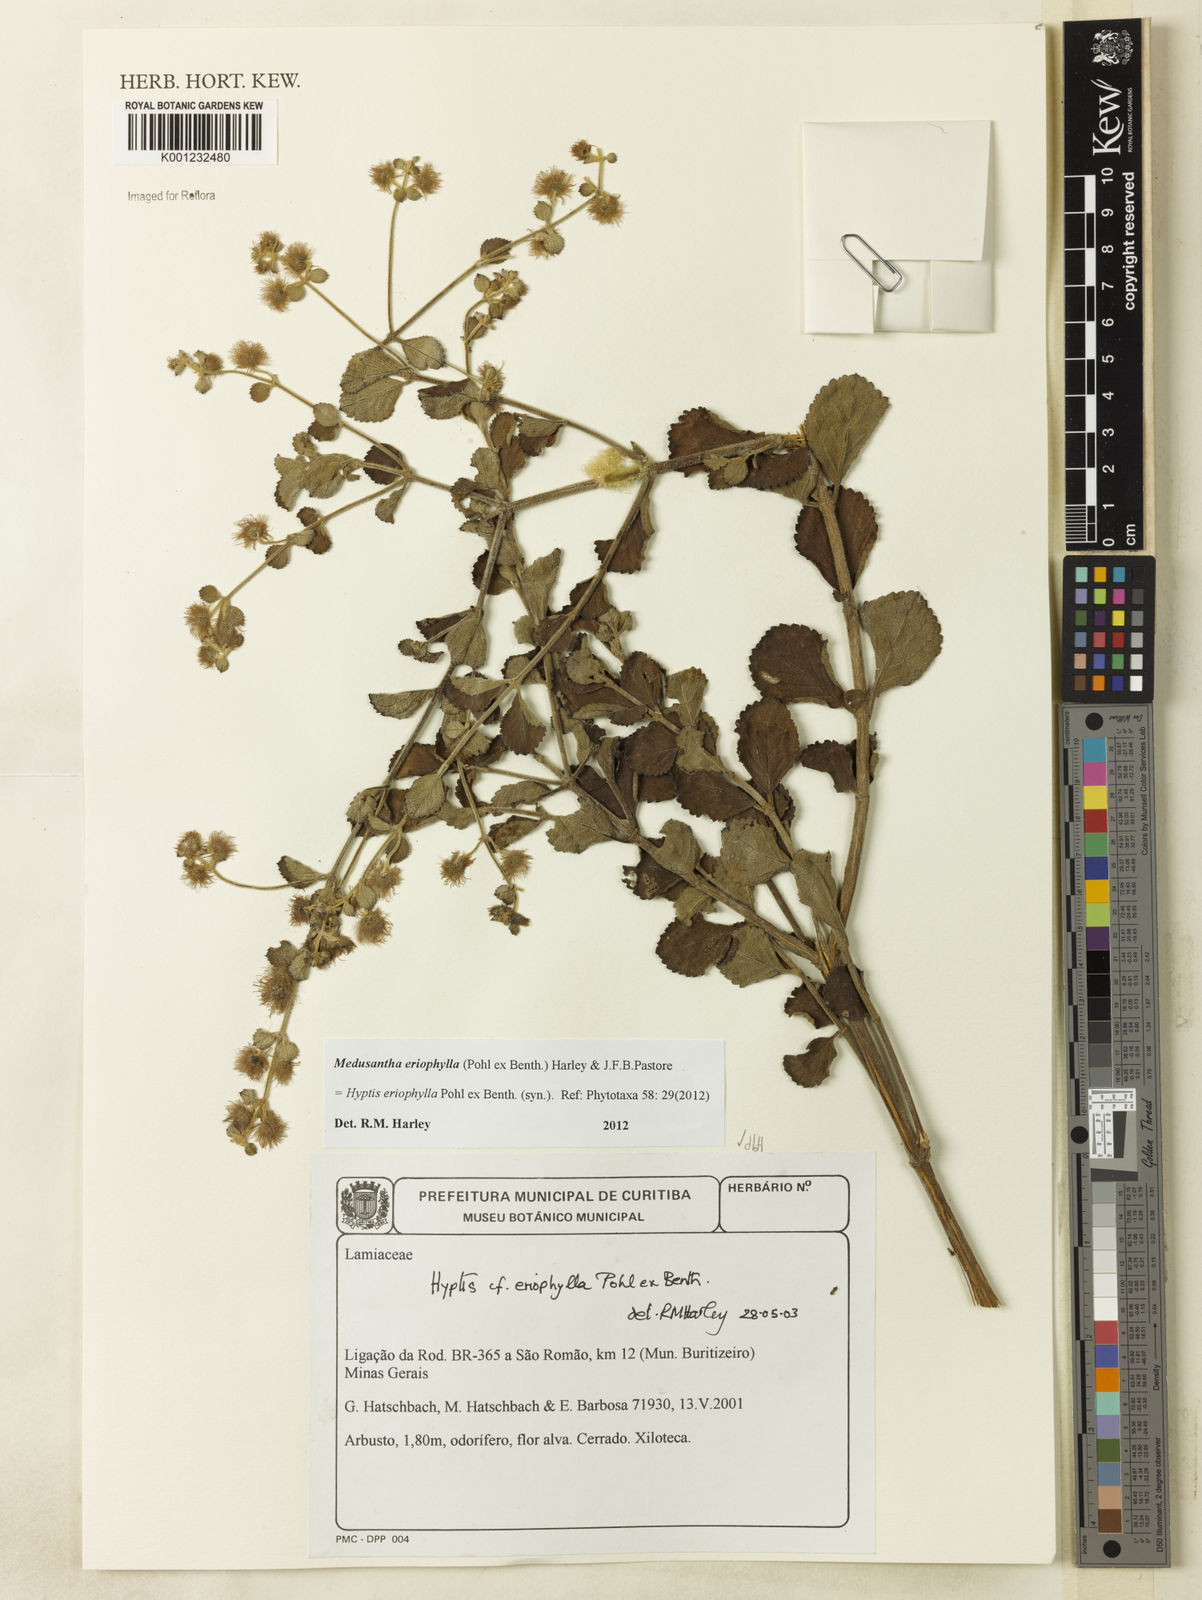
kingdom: Plantae
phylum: Tracheophyta
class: Magnoliopsida
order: Lamiales
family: Lamiaceae
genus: Medusantha
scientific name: Medusantha eriophylla
